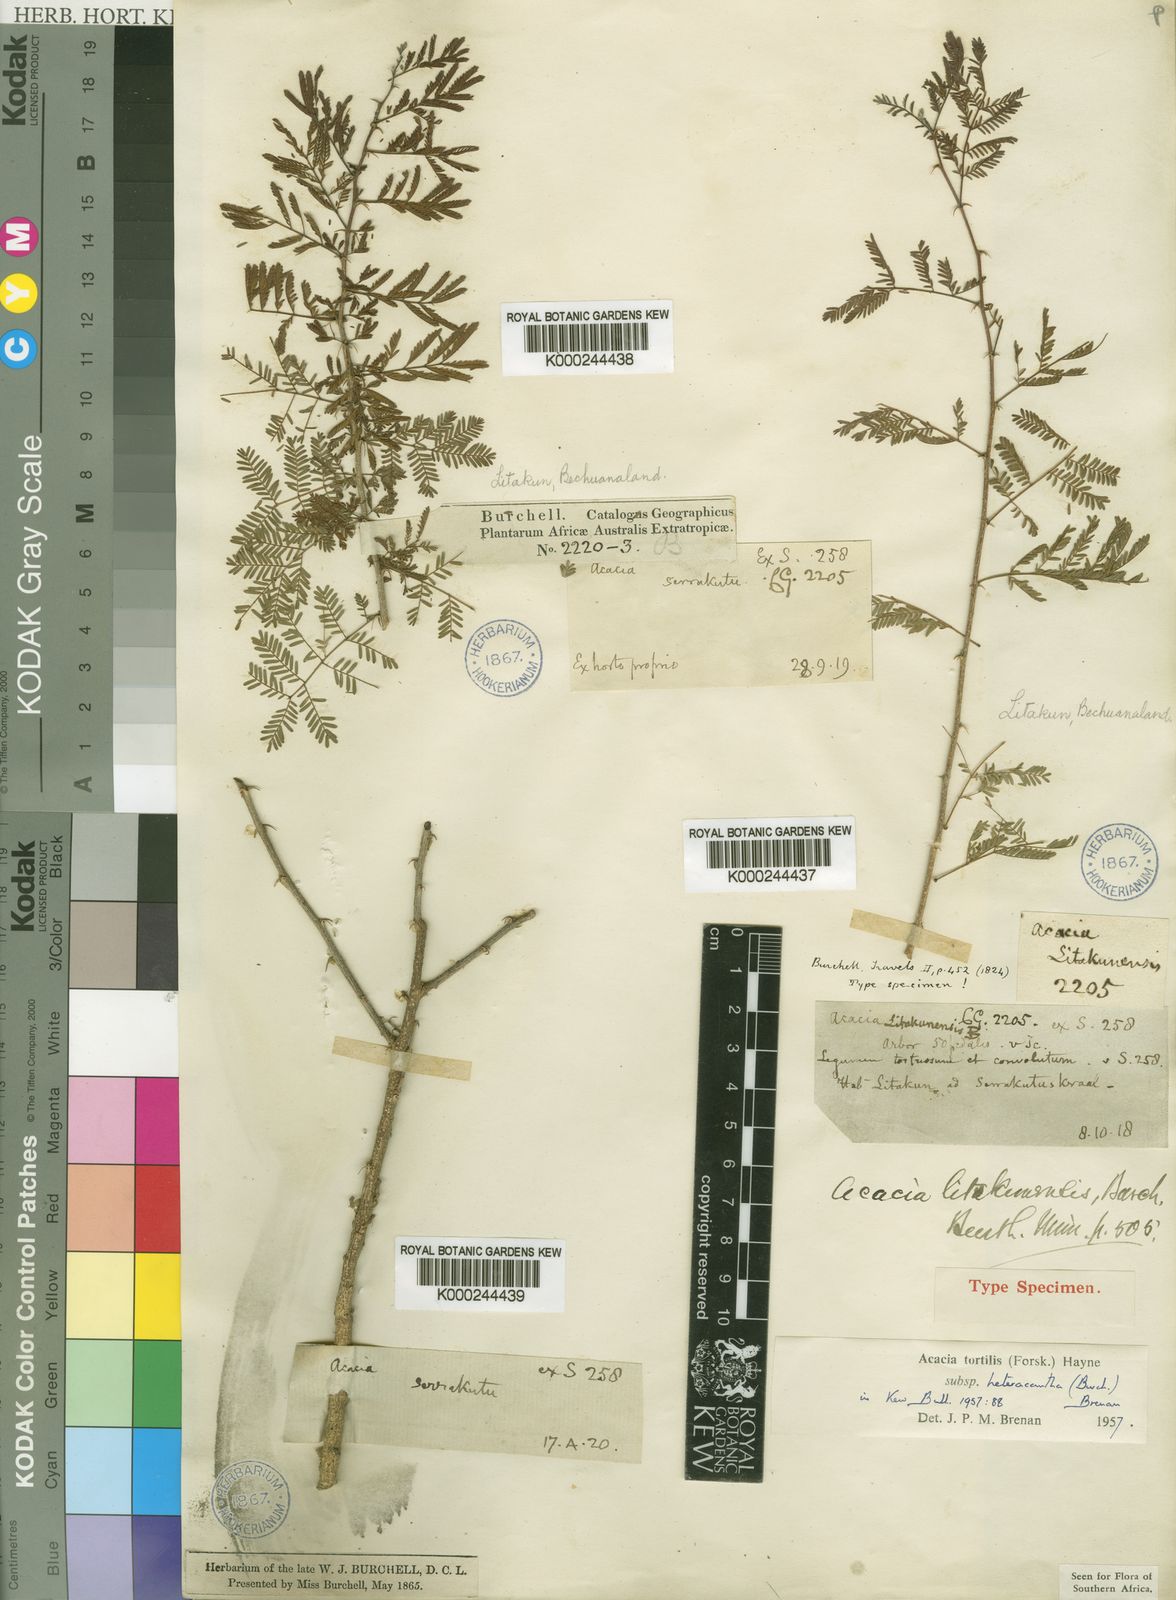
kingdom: Plantae
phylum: Tracheophyta
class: Magnoliopsida
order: Fabales
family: Fabaceae
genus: Vachellia
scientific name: Vachellia tortilis
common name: Umbrella thorn acacia
